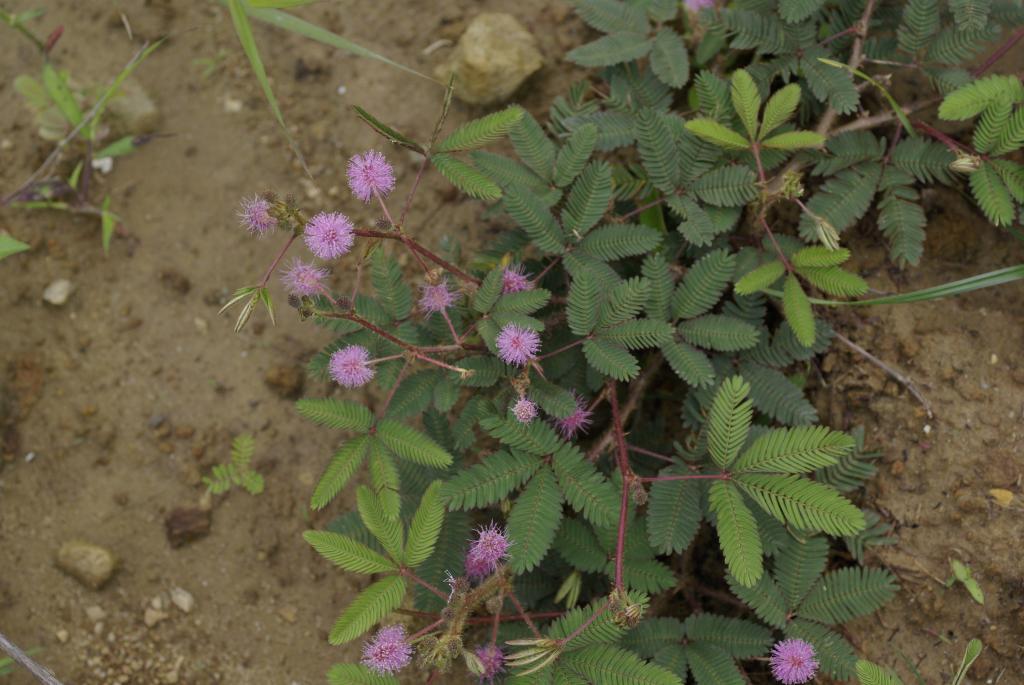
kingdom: Plantae
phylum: Tracheophyta
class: Magnoliopsida
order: Fabales
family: Fabaceae
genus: Mimosa
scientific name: Mimosa pudica
